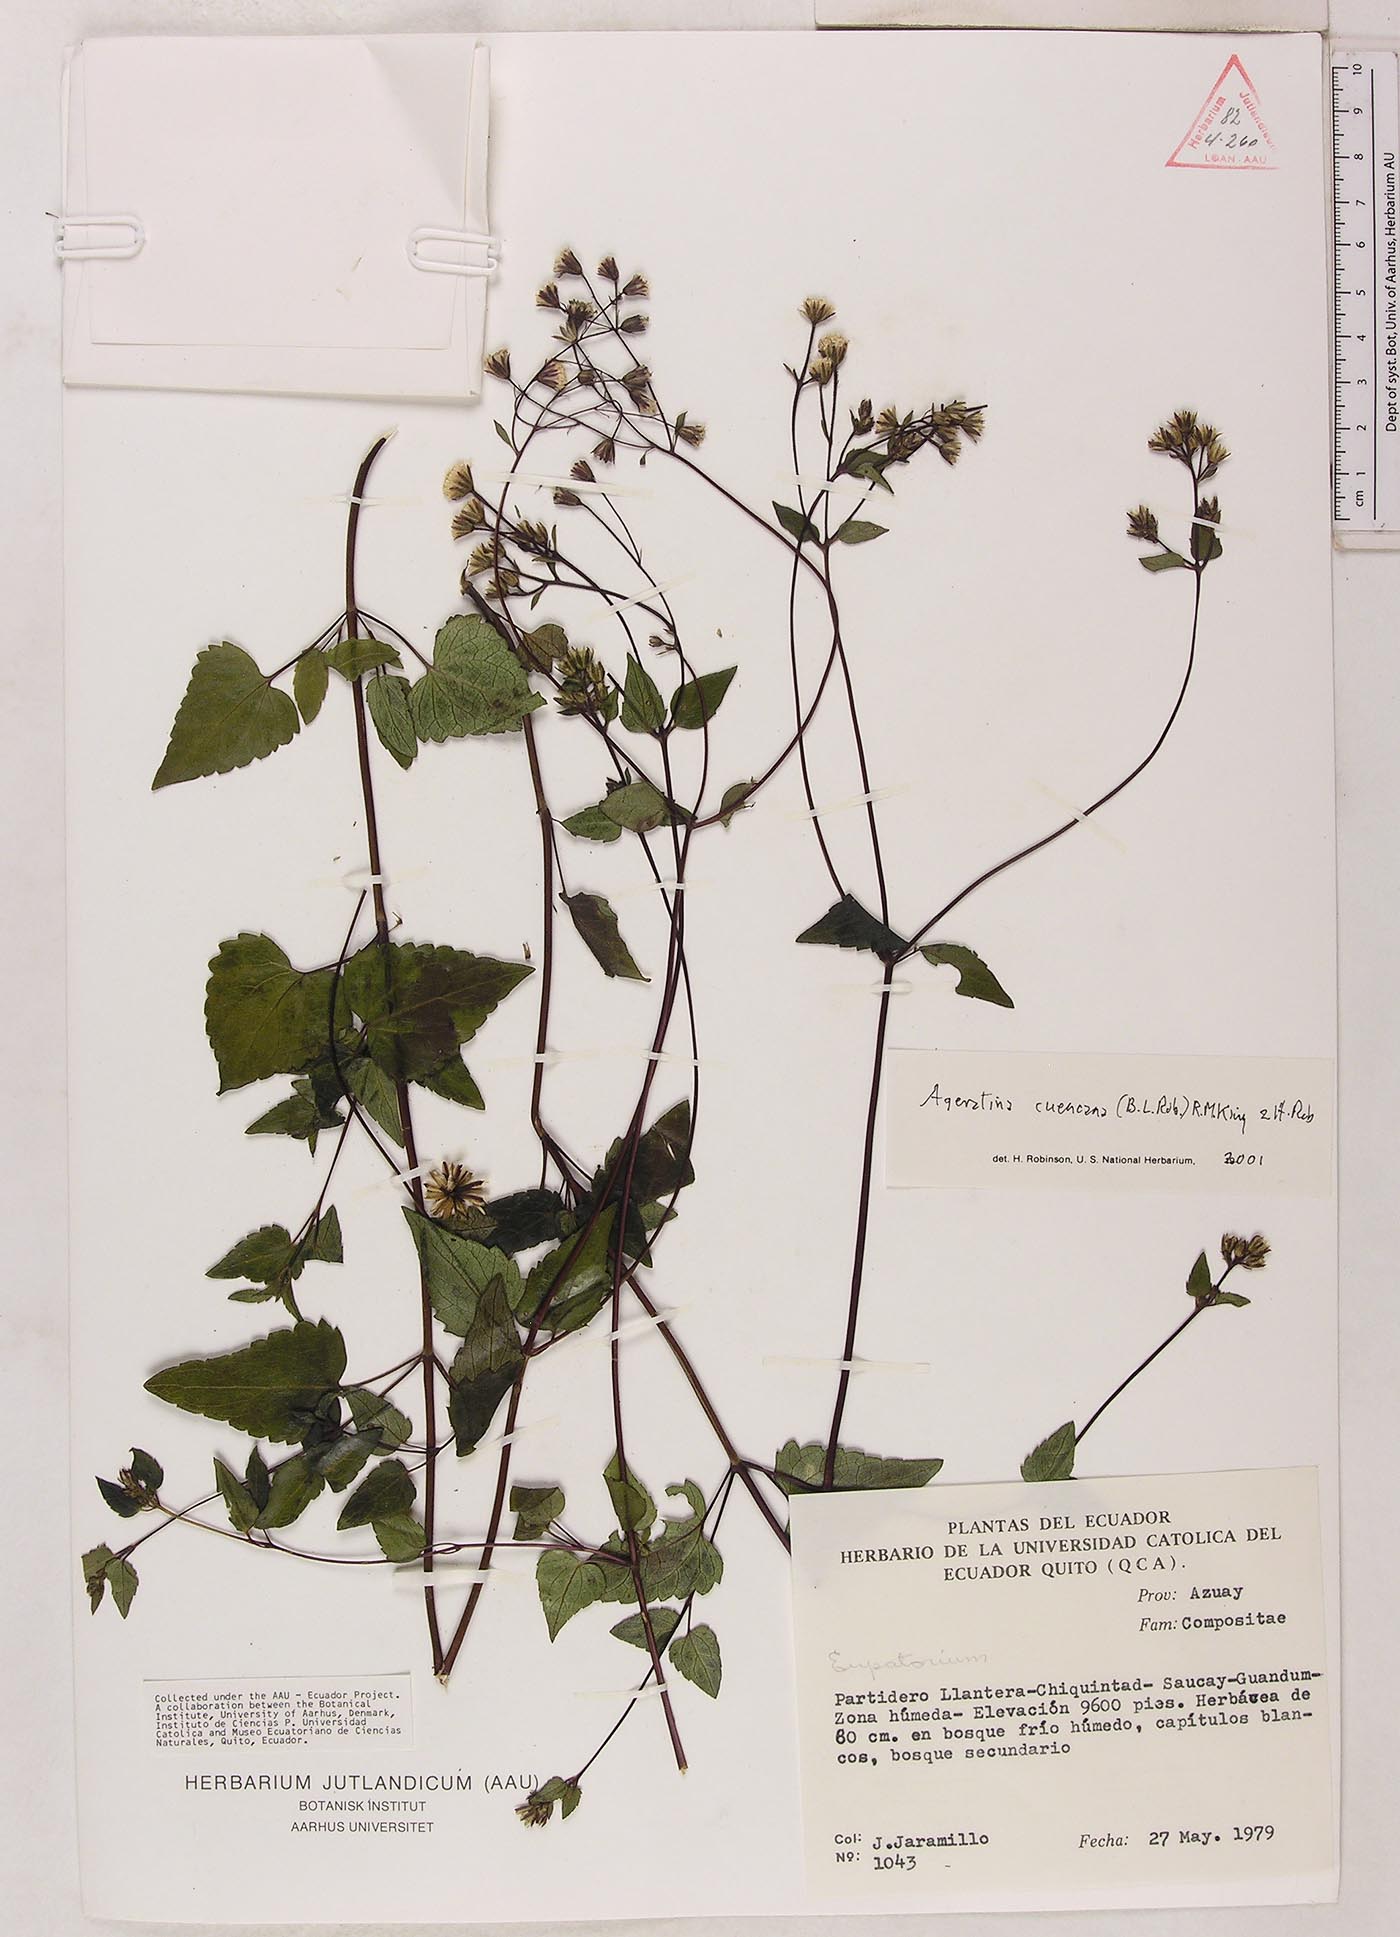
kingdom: Plantae
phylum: Tracheophyta
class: Magnoliopsida
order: Asterales
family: Asteraceae
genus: Ageratina
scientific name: Ageratina cuencana
